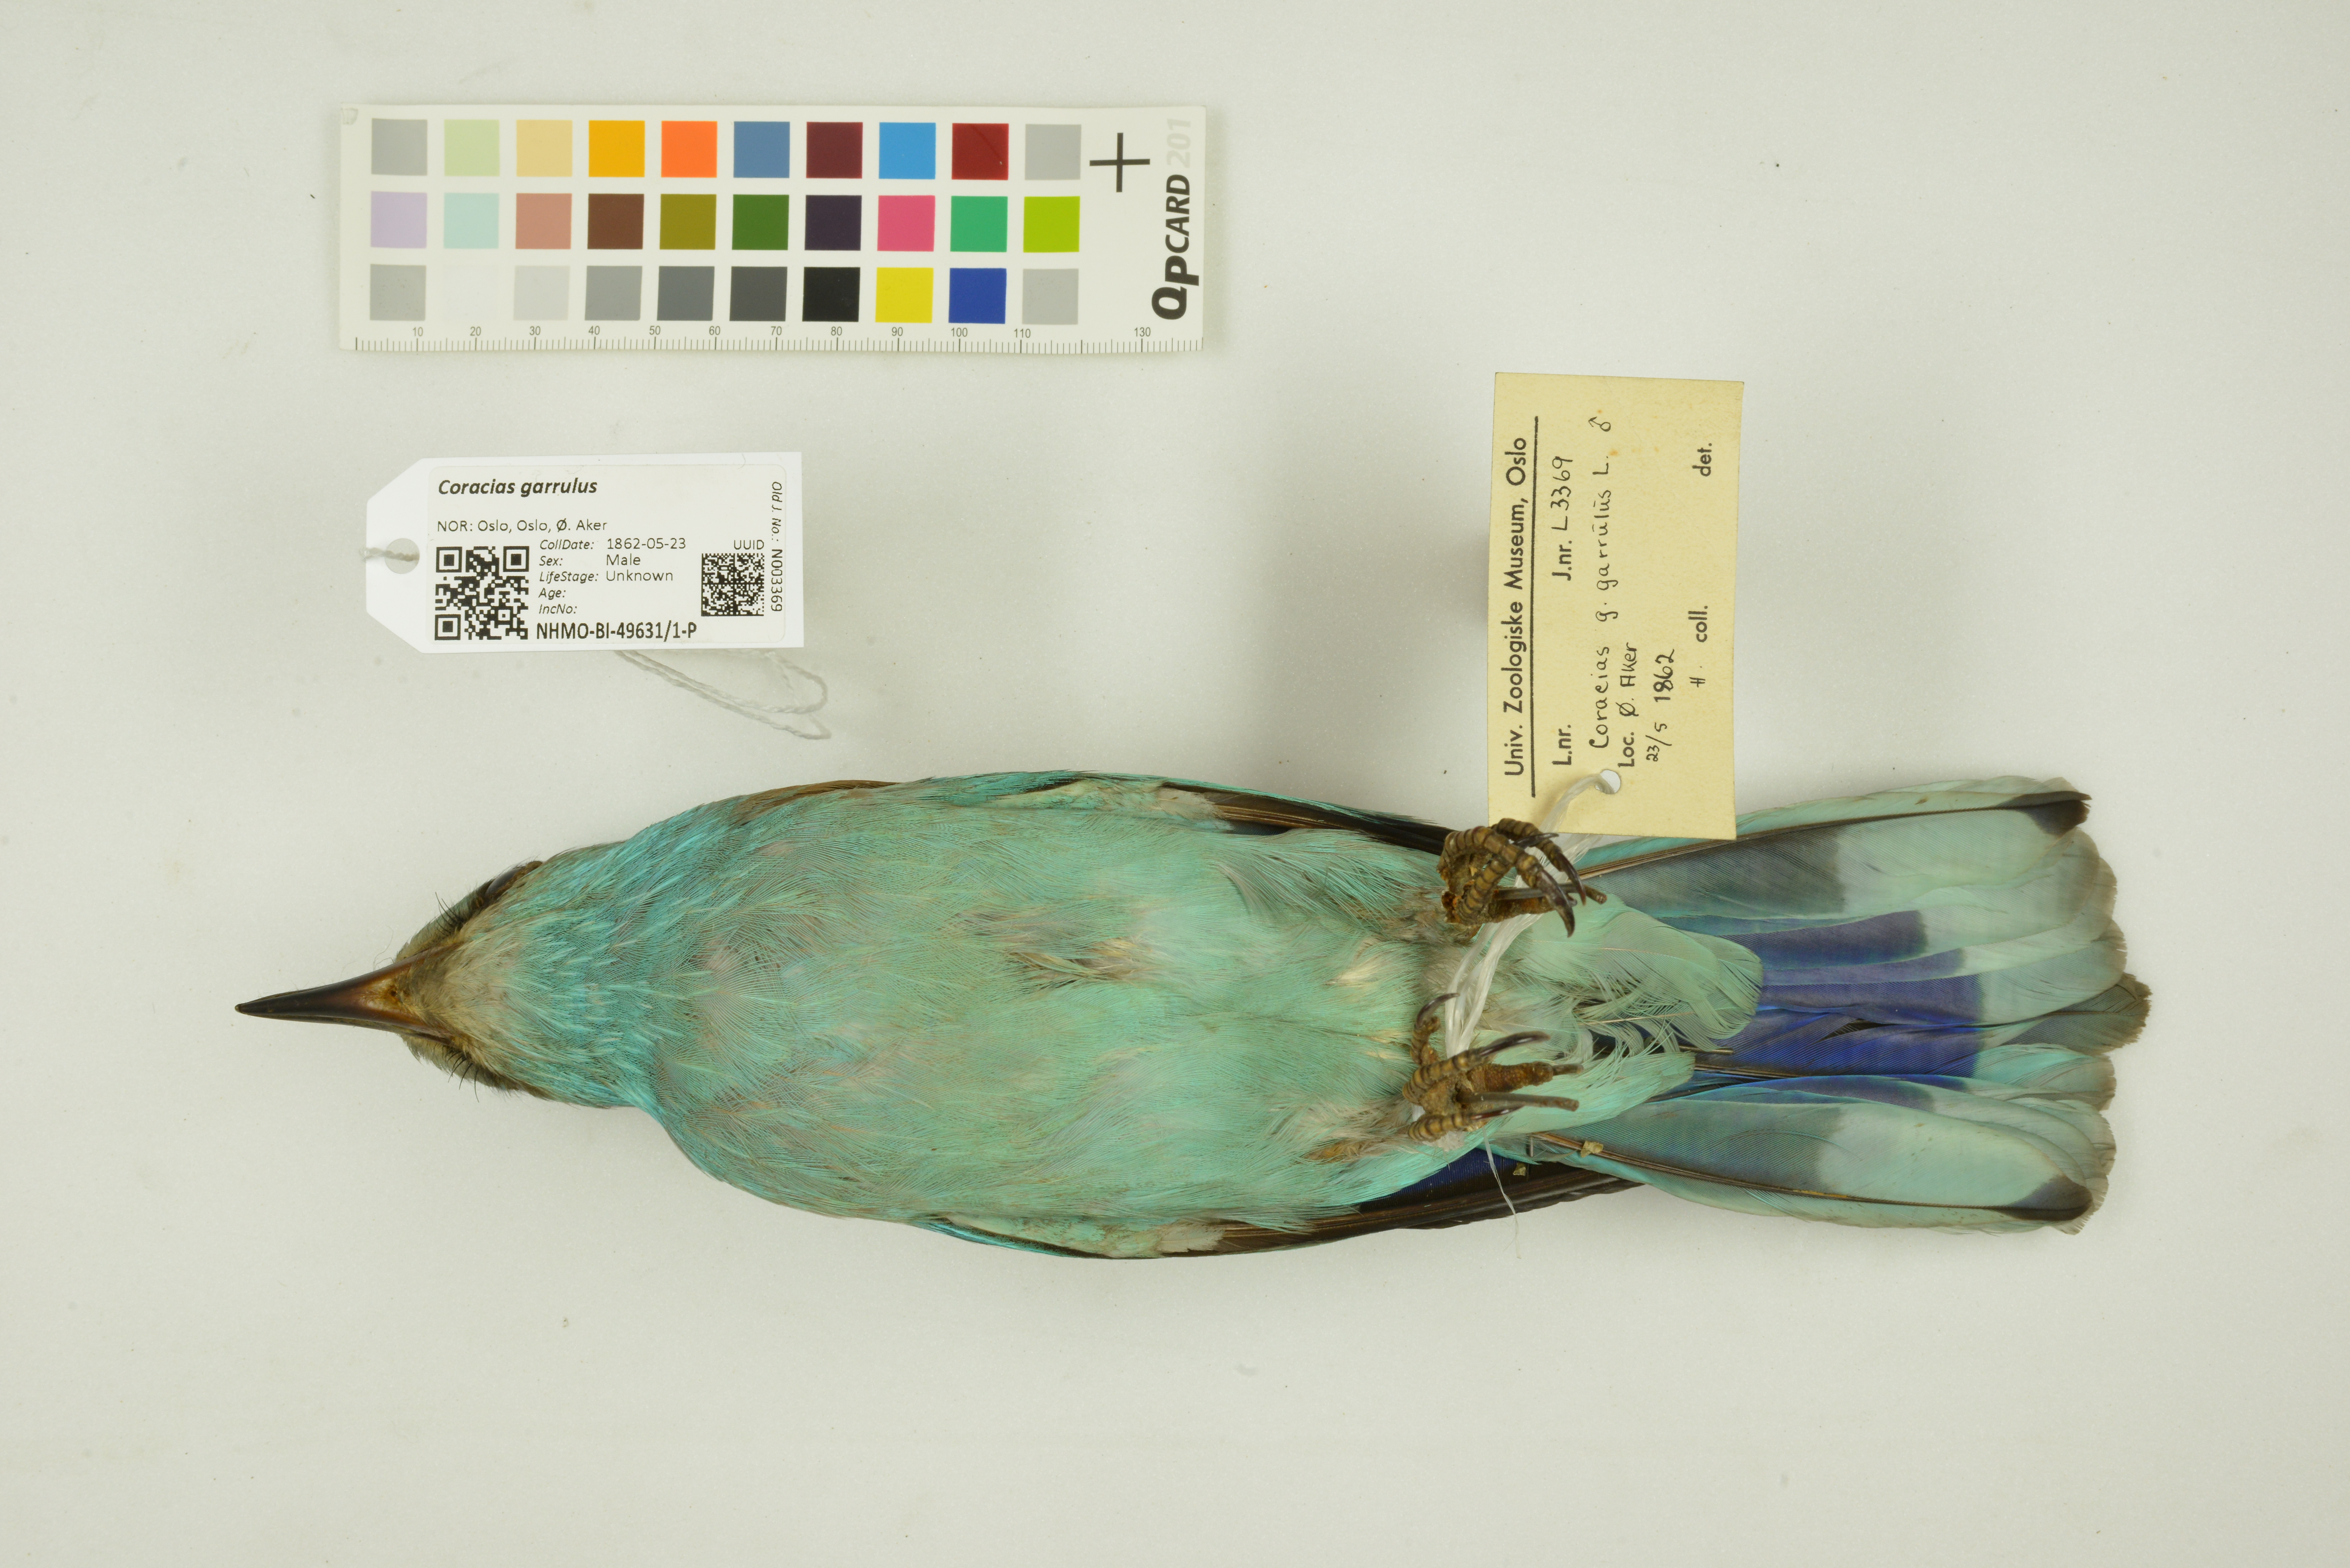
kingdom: Animalia
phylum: Chordata
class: Aves
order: Coraciiformes
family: Coraciidae
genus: Coracias
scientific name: Coracias garrulus
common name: European roller
